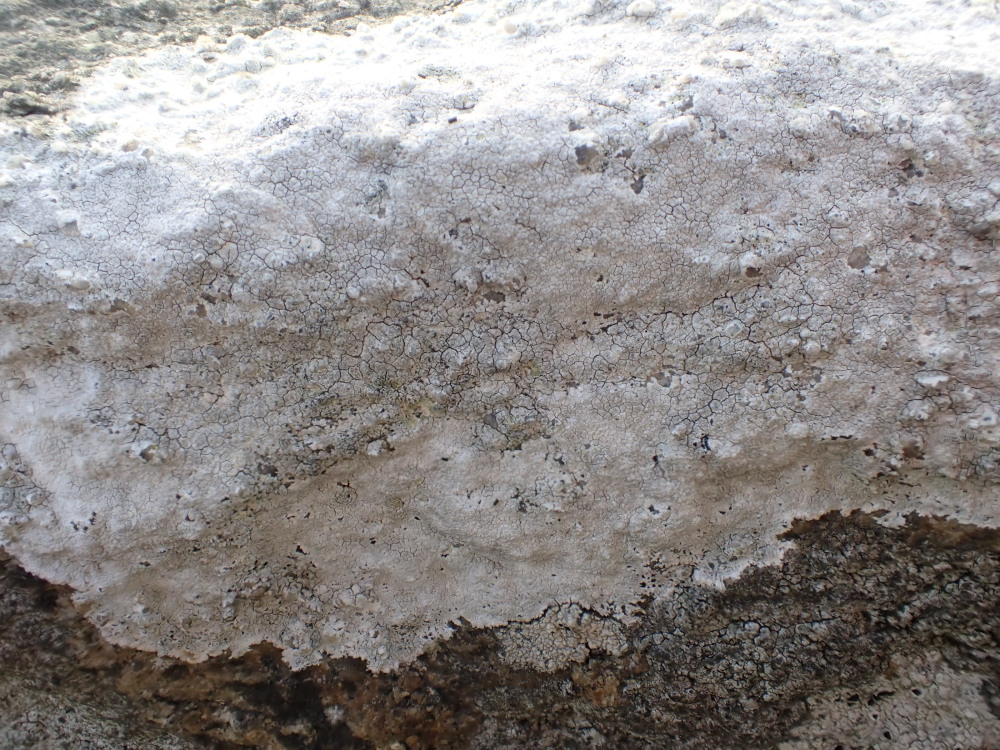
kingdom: Fungi
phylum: Ascomycota
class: Lecanoromycetes
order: Lecanorales
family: Lecanoraceae
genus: Glaucomaria
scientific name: Glaucomaria rupicola
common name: stengærde-kantskivelav
